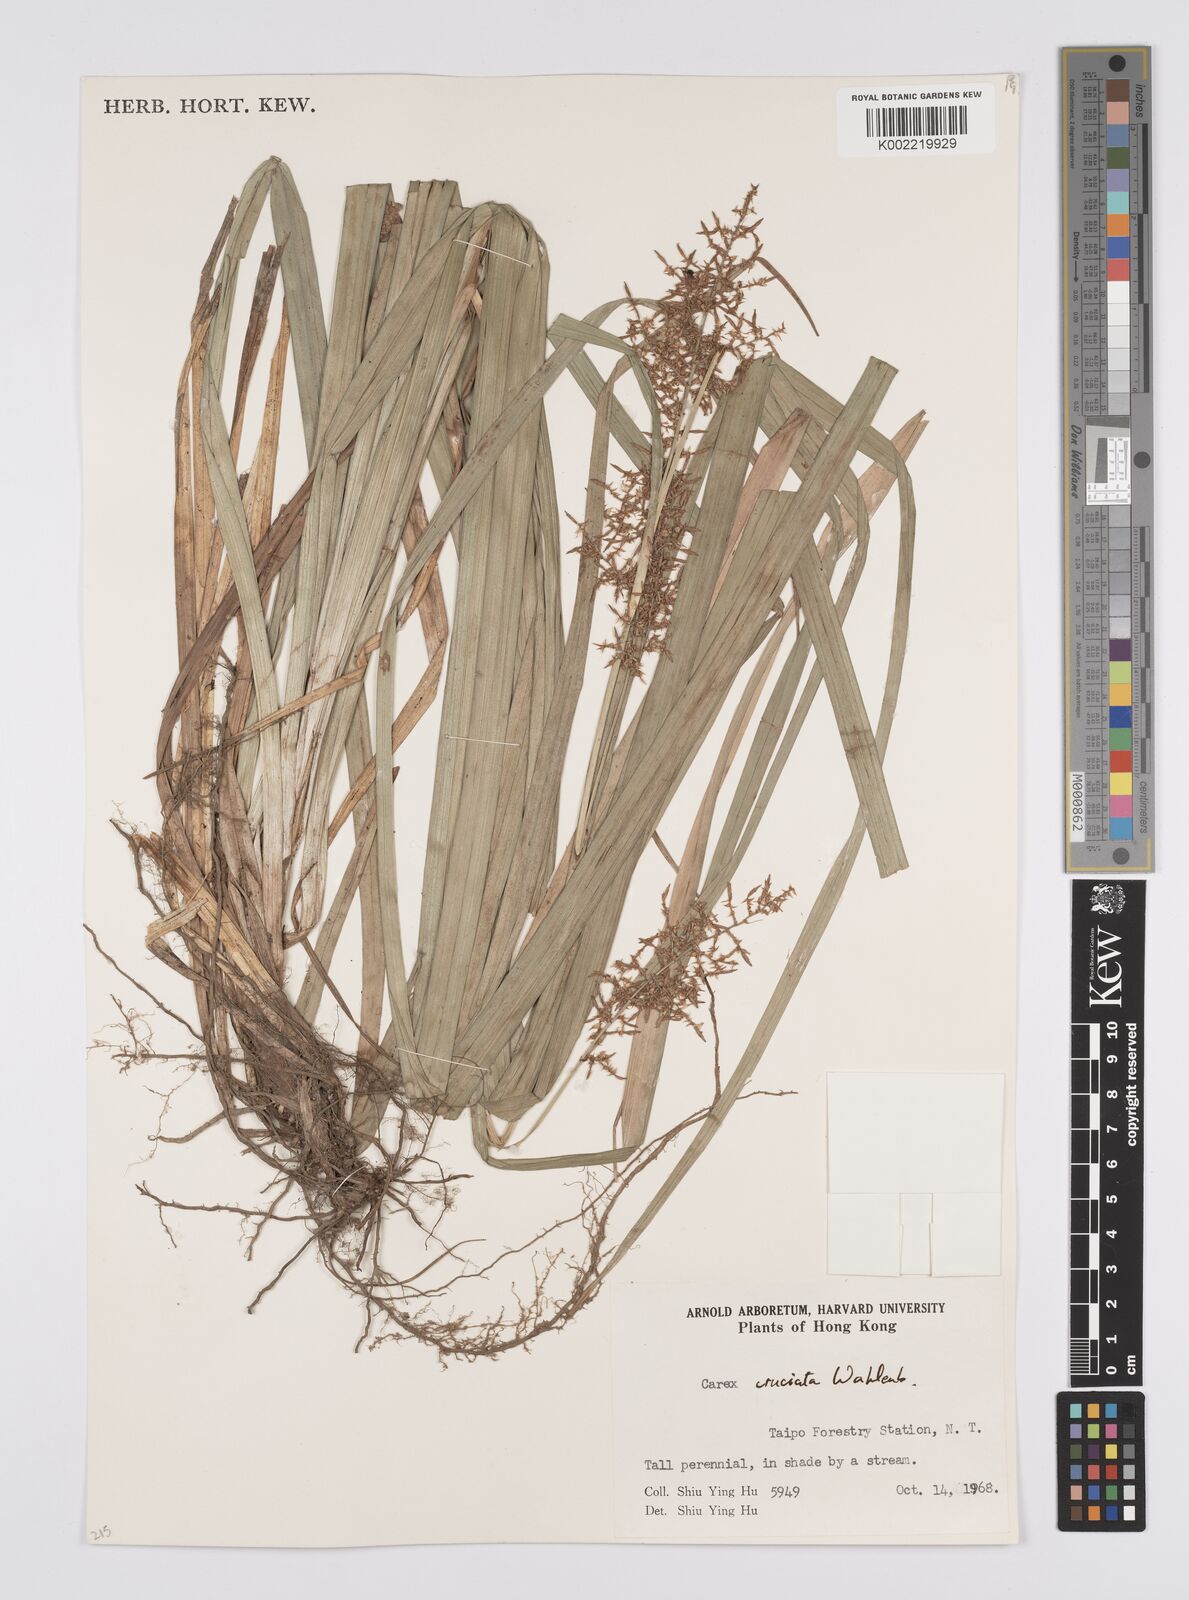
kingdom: Plantae
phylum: Tracheophyta
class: Liliopsida
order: Poales
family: Cyperaceae
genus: Carex
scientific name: Carex cruciata
